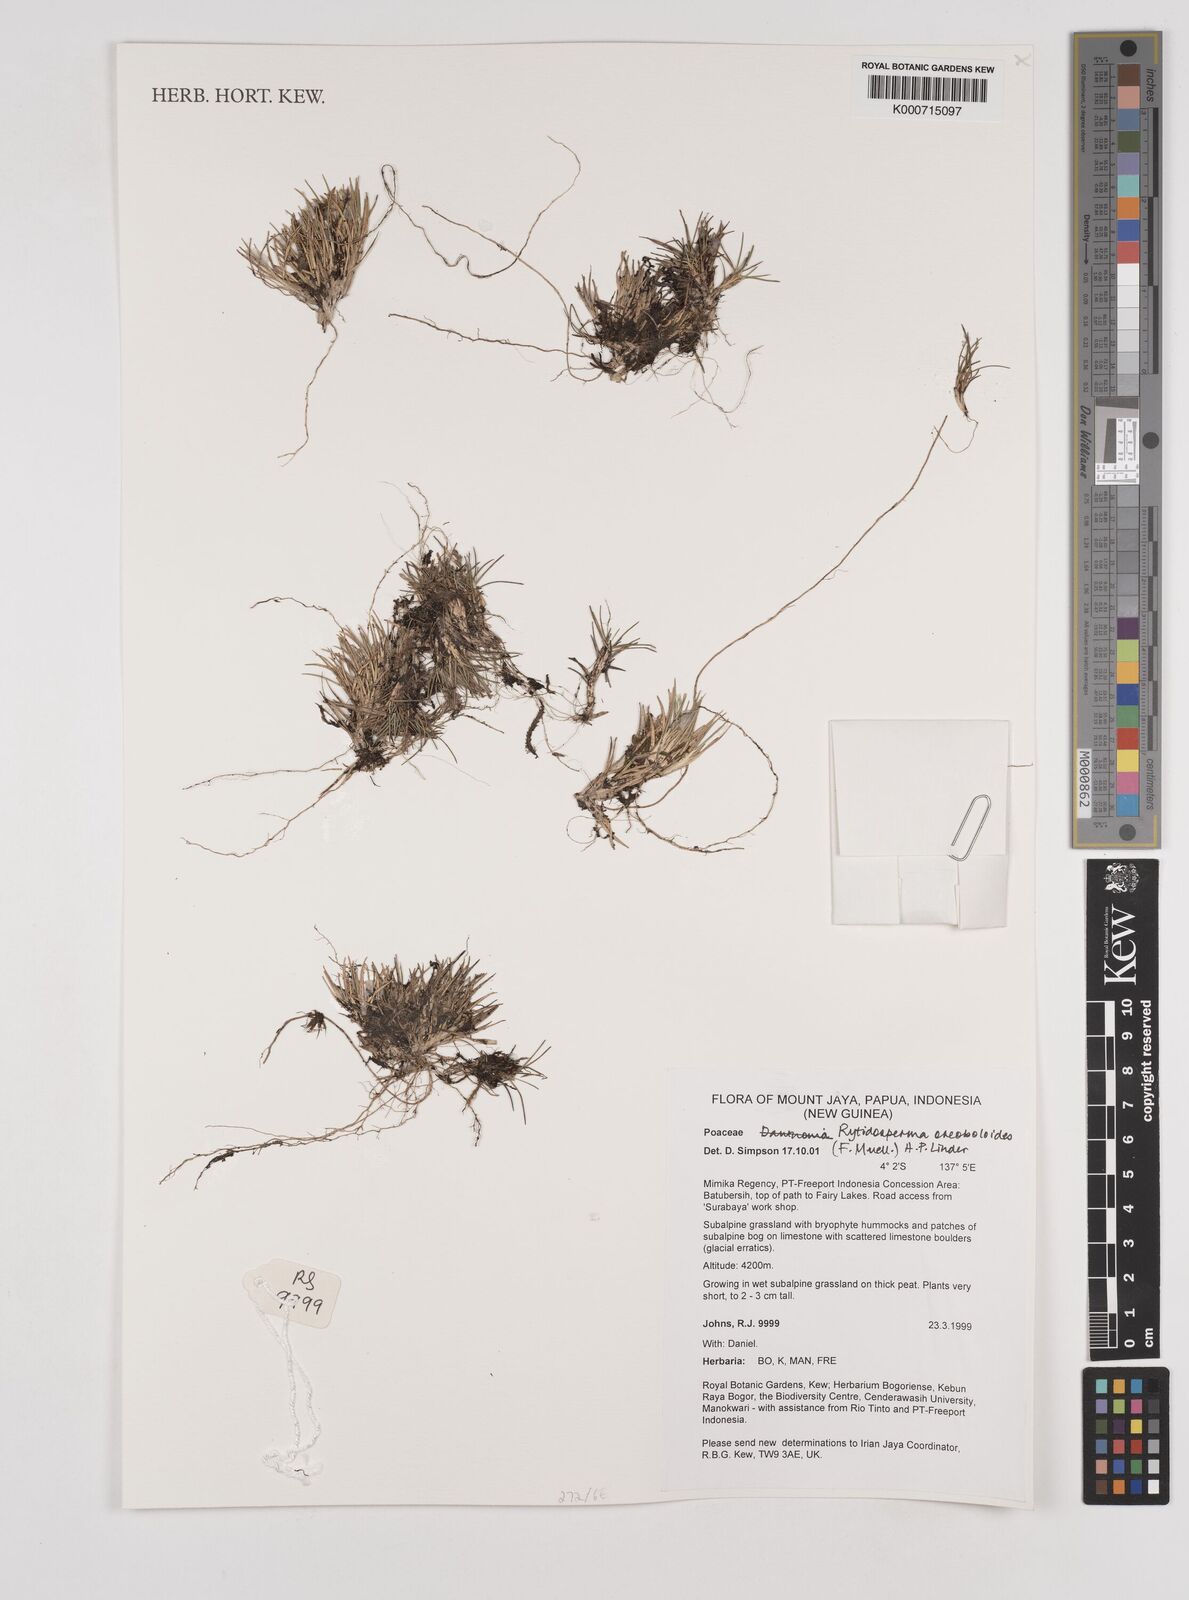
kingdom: Plantae
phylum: Tracheophyta
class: Liliopsida
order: Poales
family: Poaceae
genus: Rytidosperma
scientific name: Rytidosperma oreoboloides
